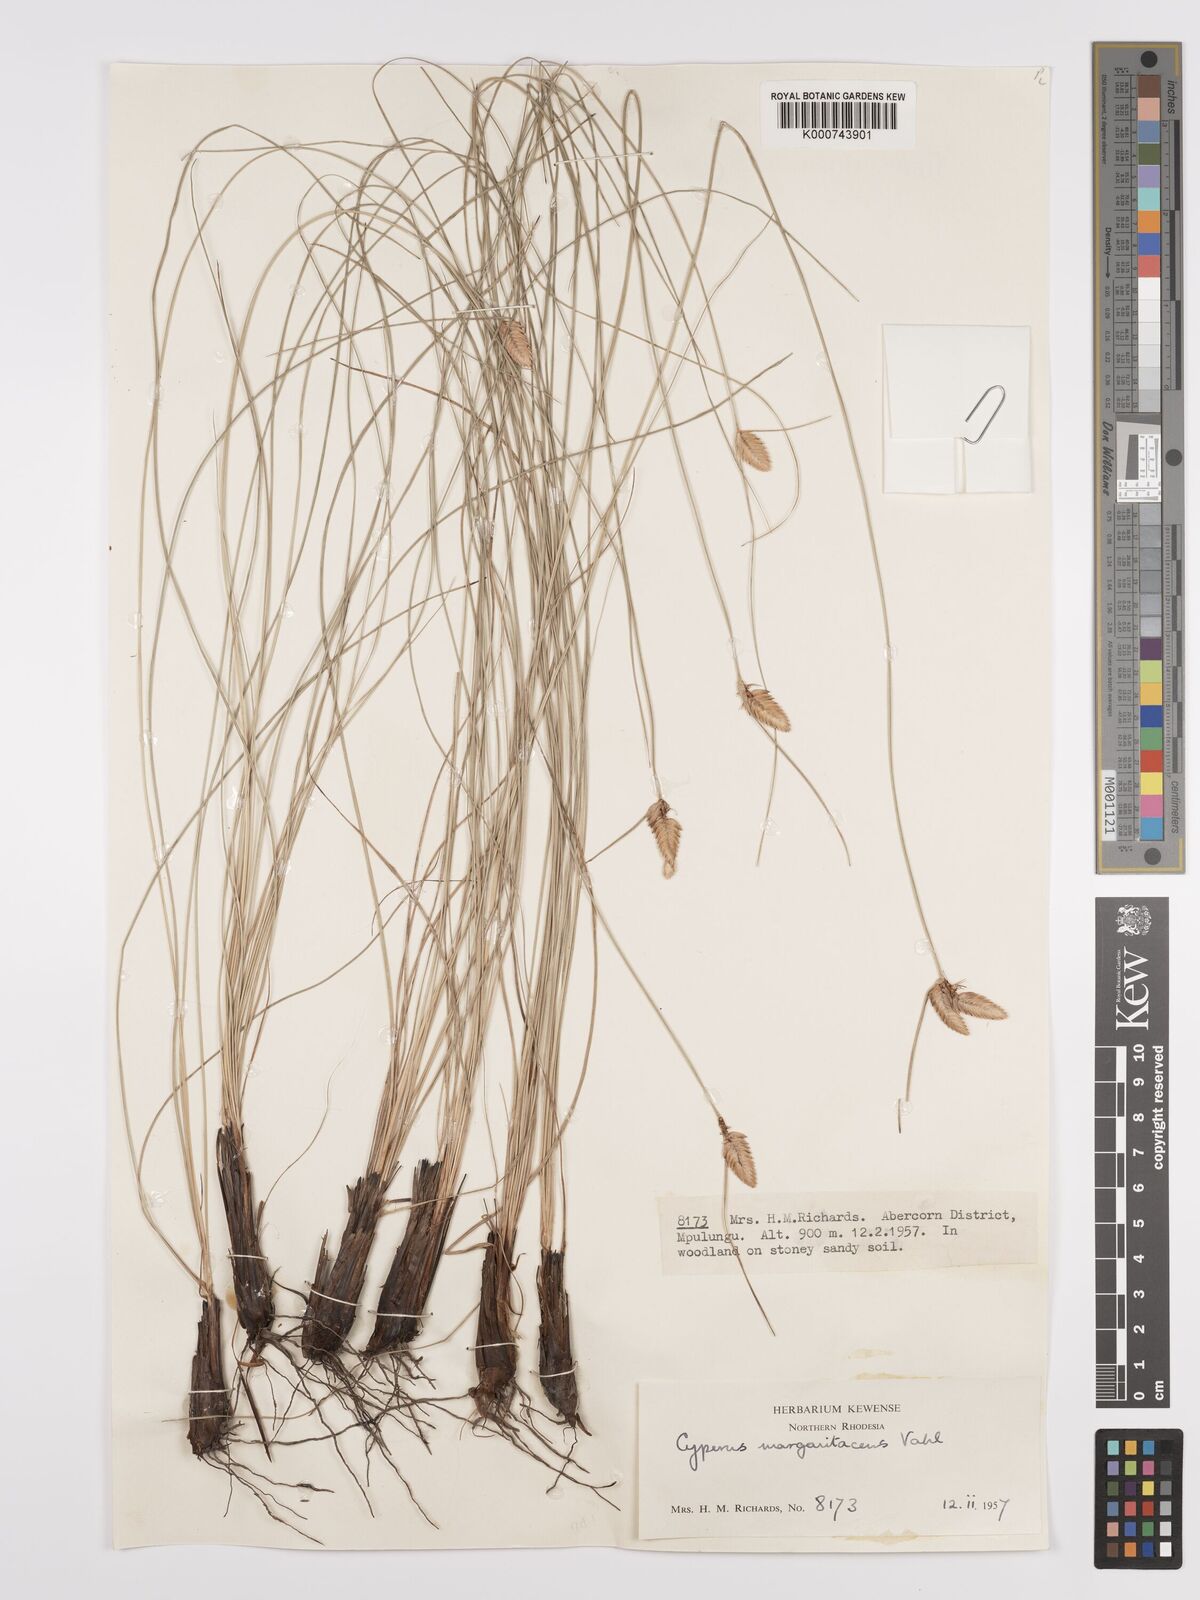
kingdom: Plantae
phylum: Tracheophyta
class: Liliopsida
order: Poales
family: Cyperaceae
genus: Cyperus
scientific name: Cyperus margaritaceus
